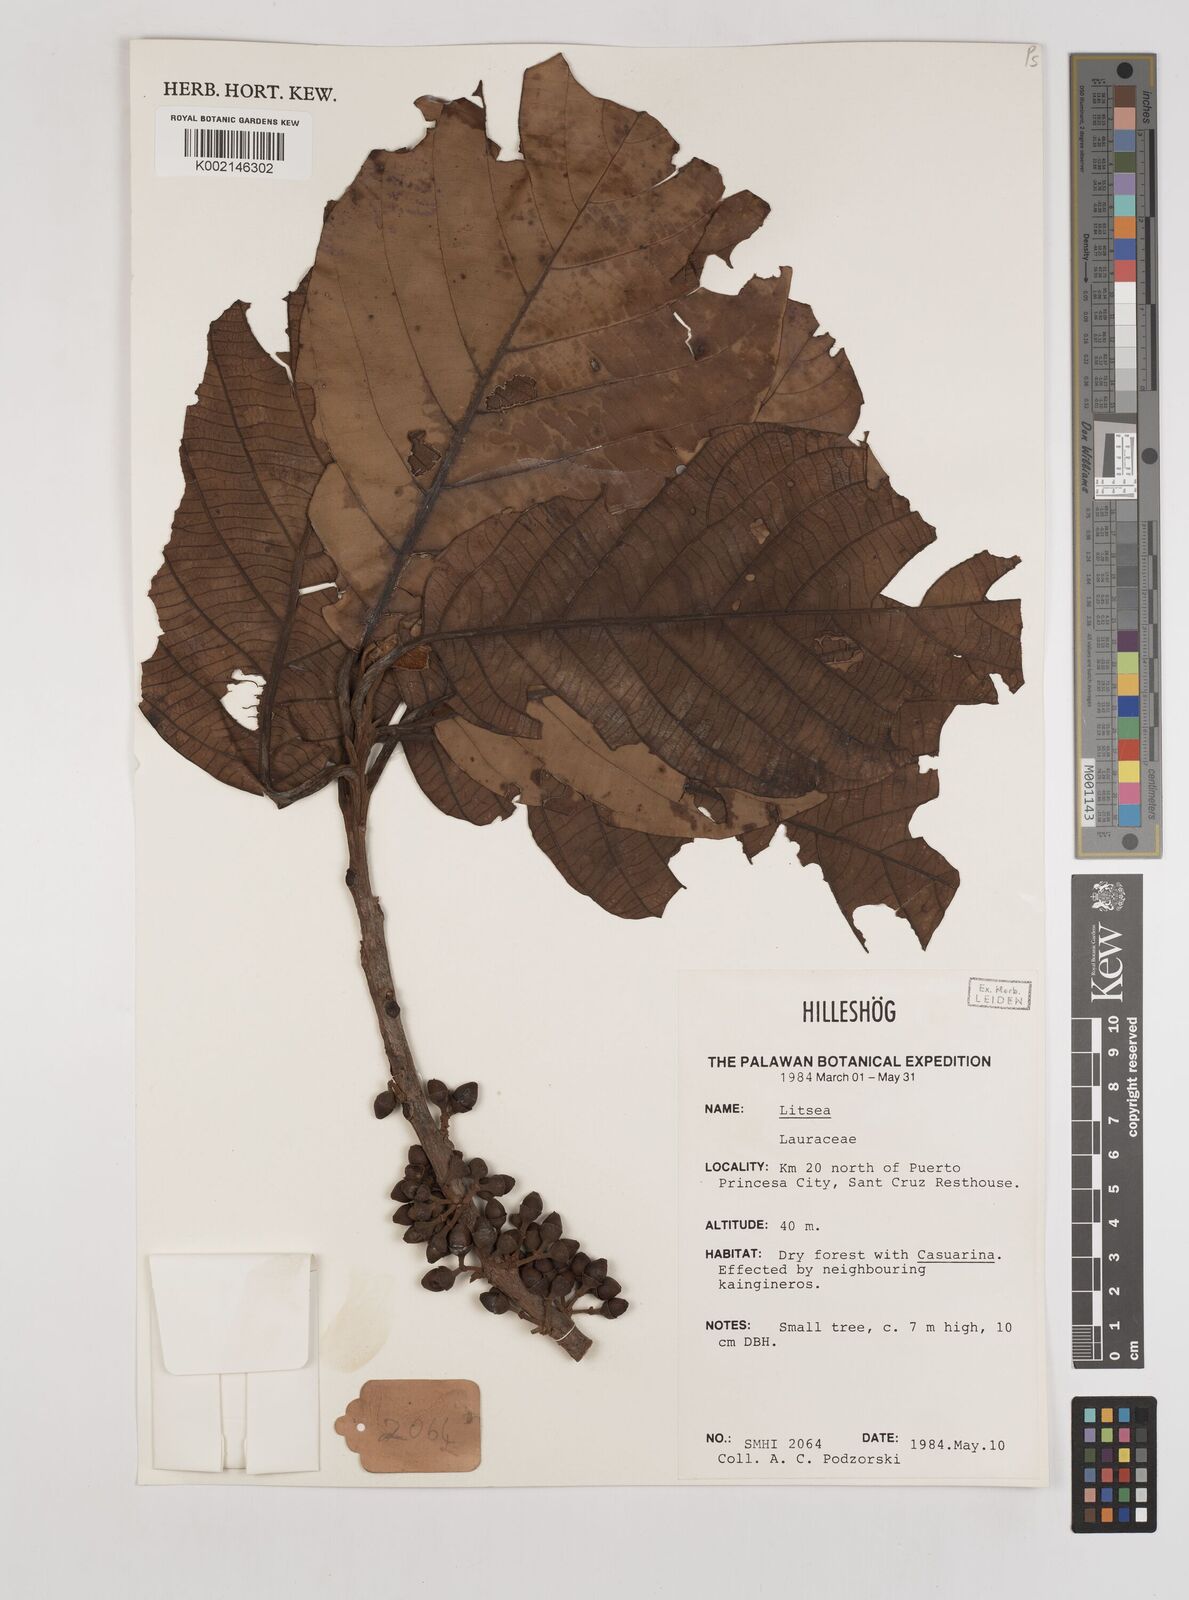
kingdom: Plantae
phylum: Tracheophyta
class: Magnoliopsida
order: Laurales
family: Lauraceae
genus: Litsea
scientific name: Litsea
